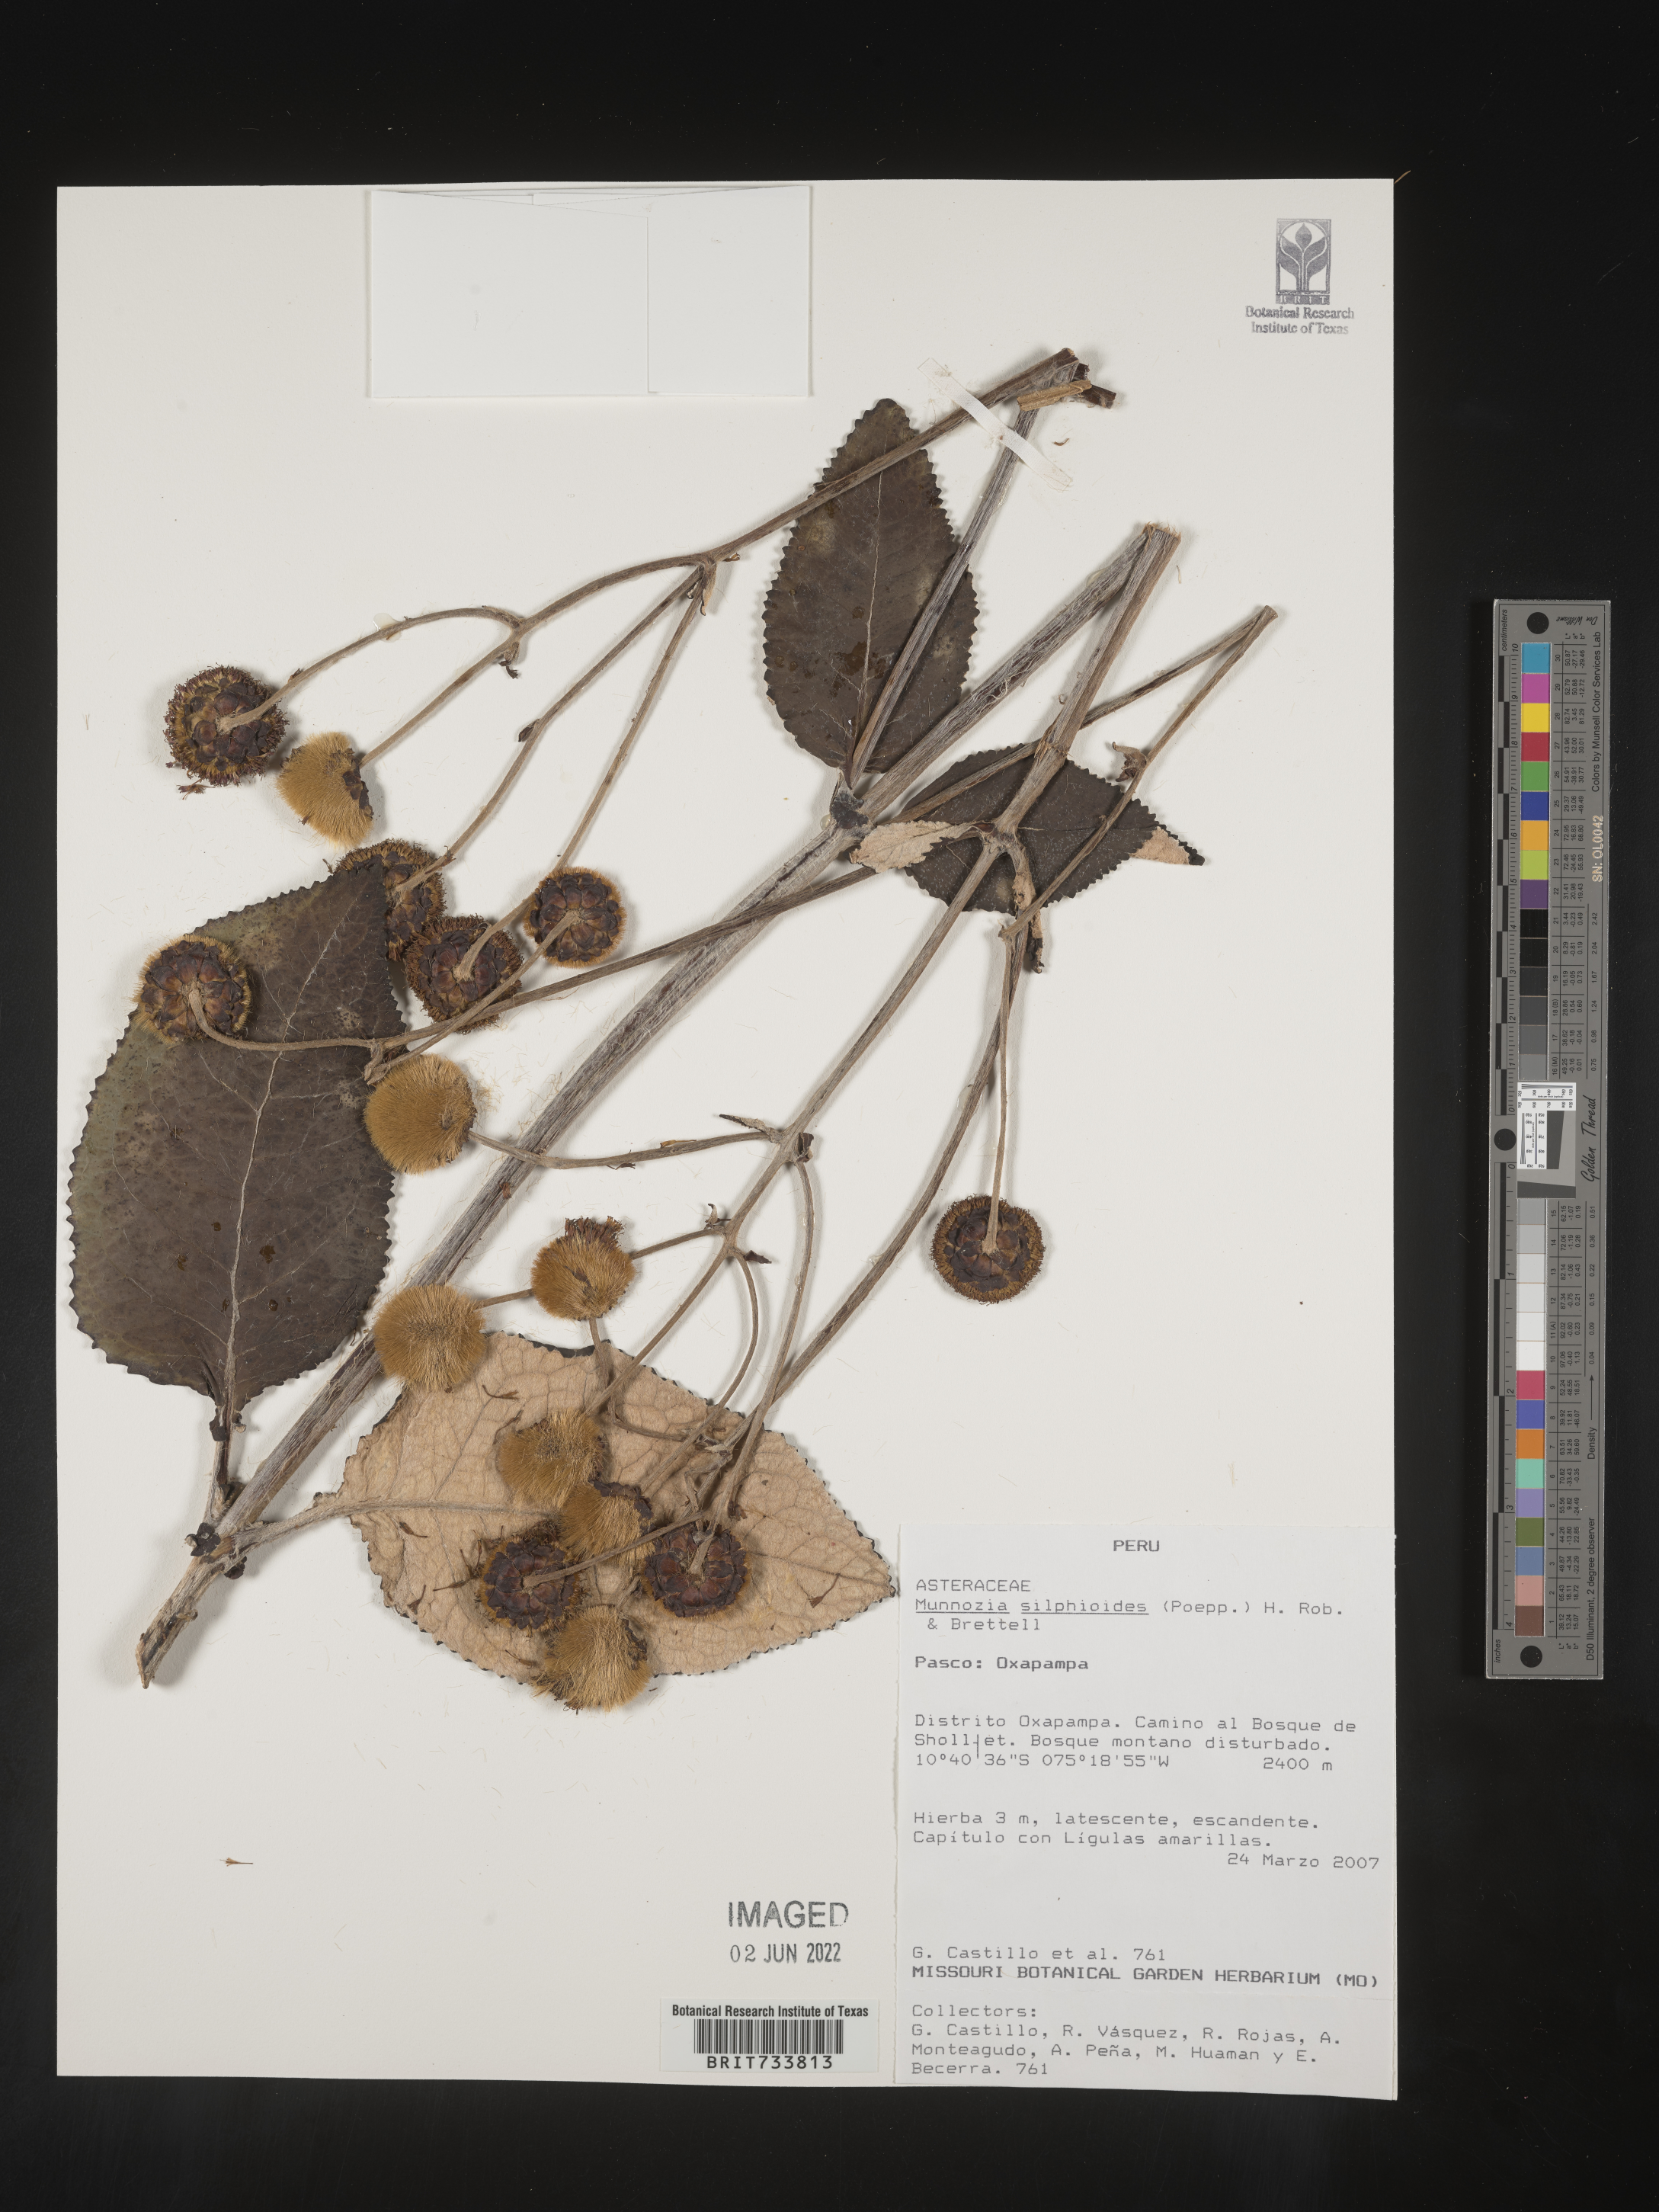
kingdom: Plantae
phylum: Tracheophyta
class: Magnoliopsida
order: Asterales
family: Asteraceae
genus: Munnozia
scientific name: Munnozia
